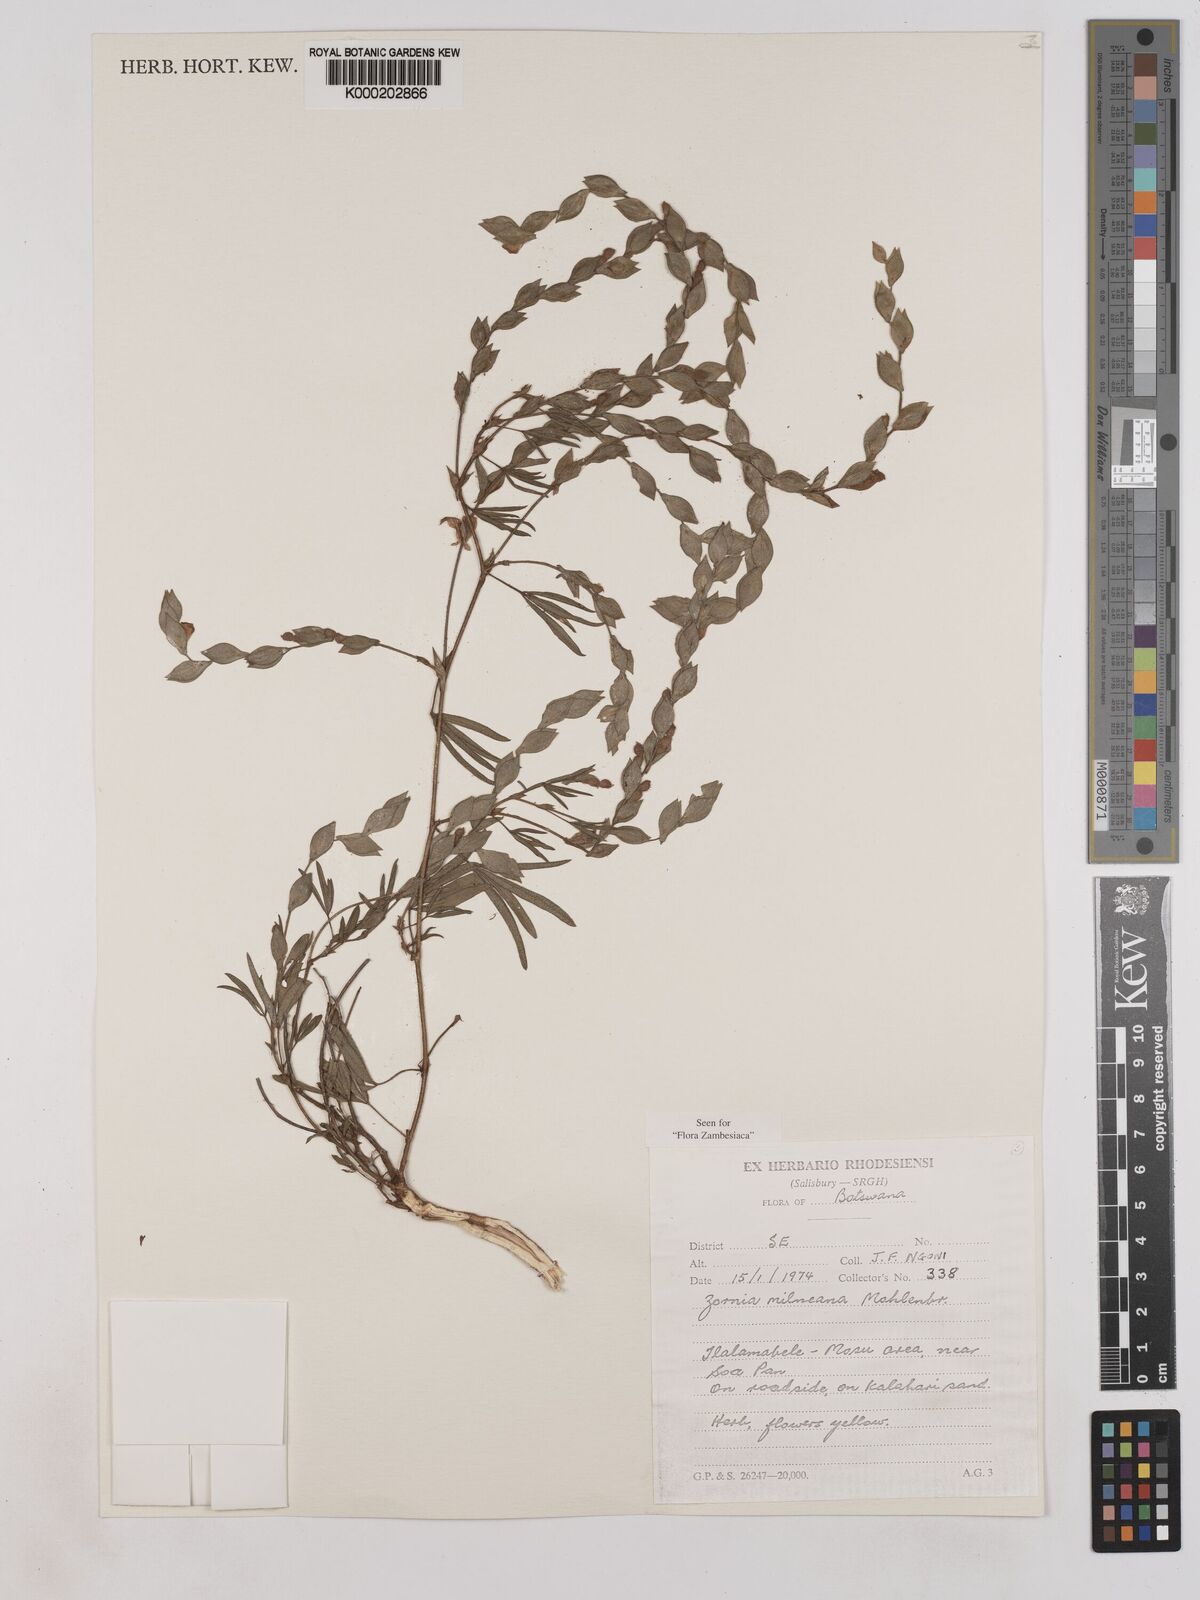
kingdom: Plantae
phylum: Tracheophyta
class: Magnoliopsida
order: Fabales
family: Fabaceae
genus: Zornia
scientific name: Zornia milneana
